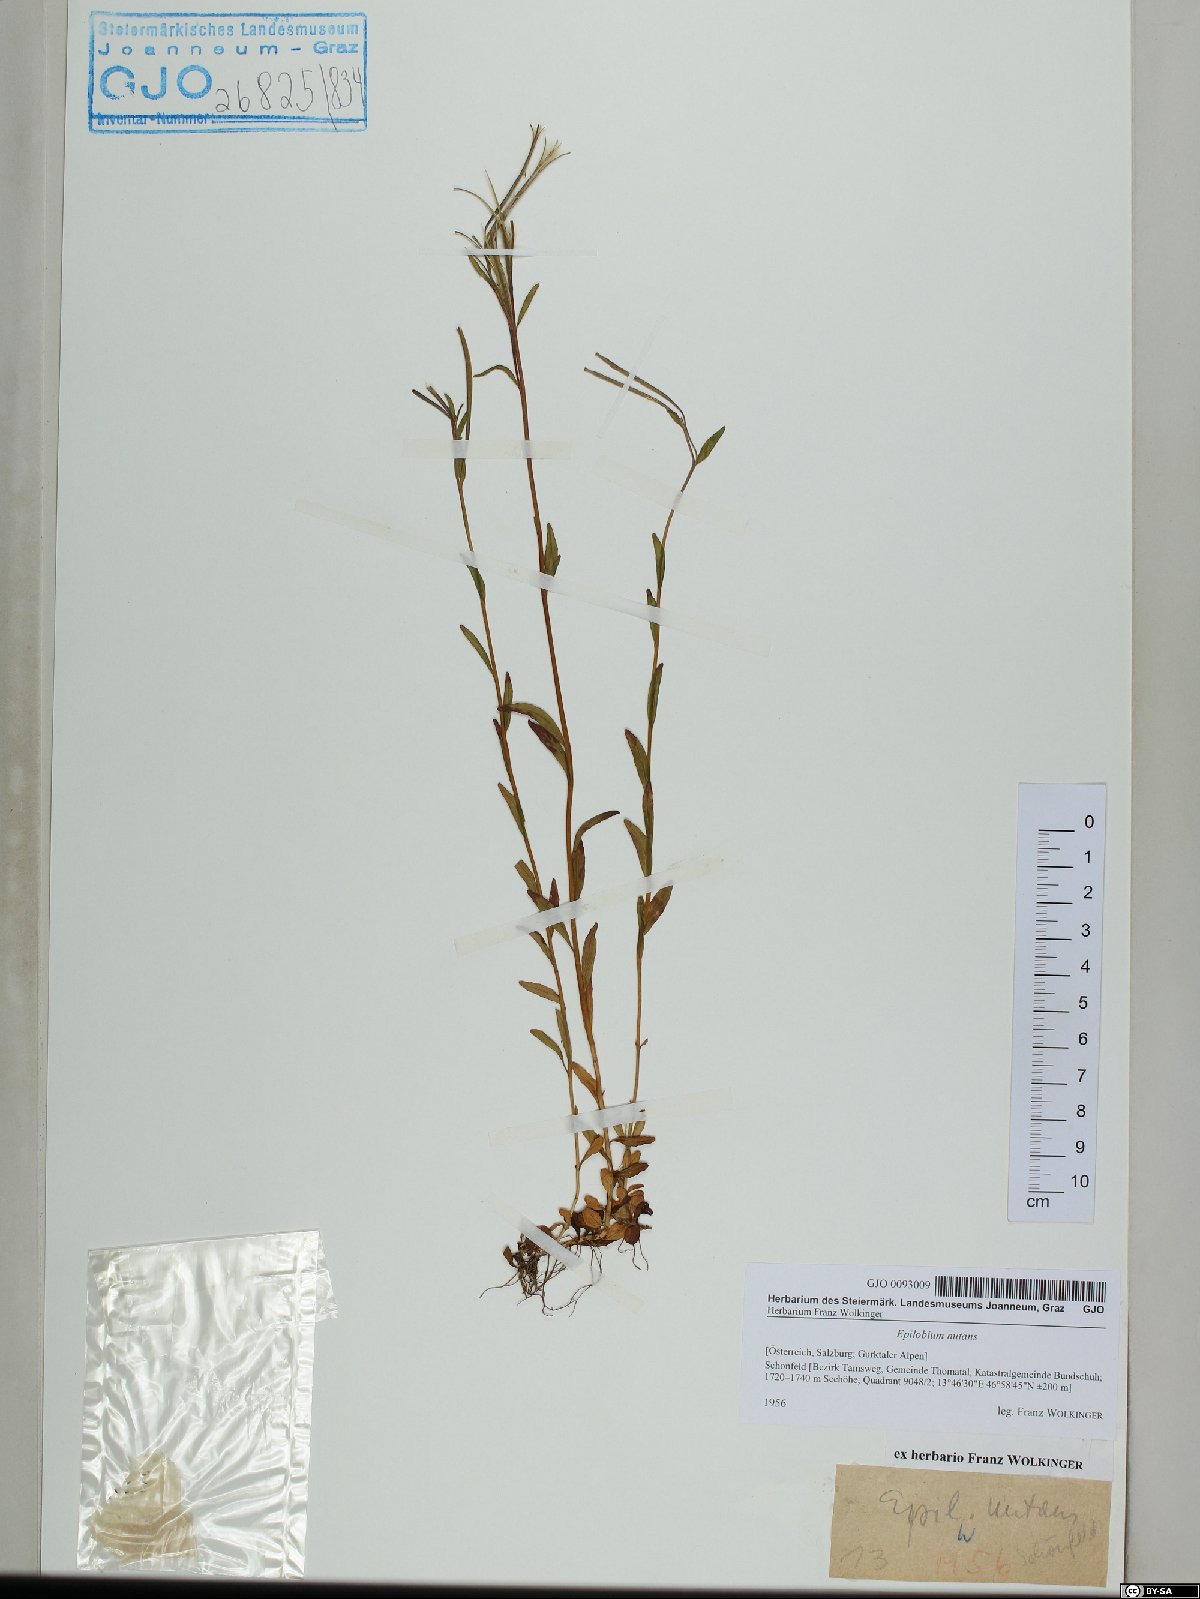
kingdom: Plantae
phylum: Tracheophyta
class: Magnoliopsida
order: Myrtales
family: Onagraceae
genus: Epilobium
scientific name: Epilobium nutans
